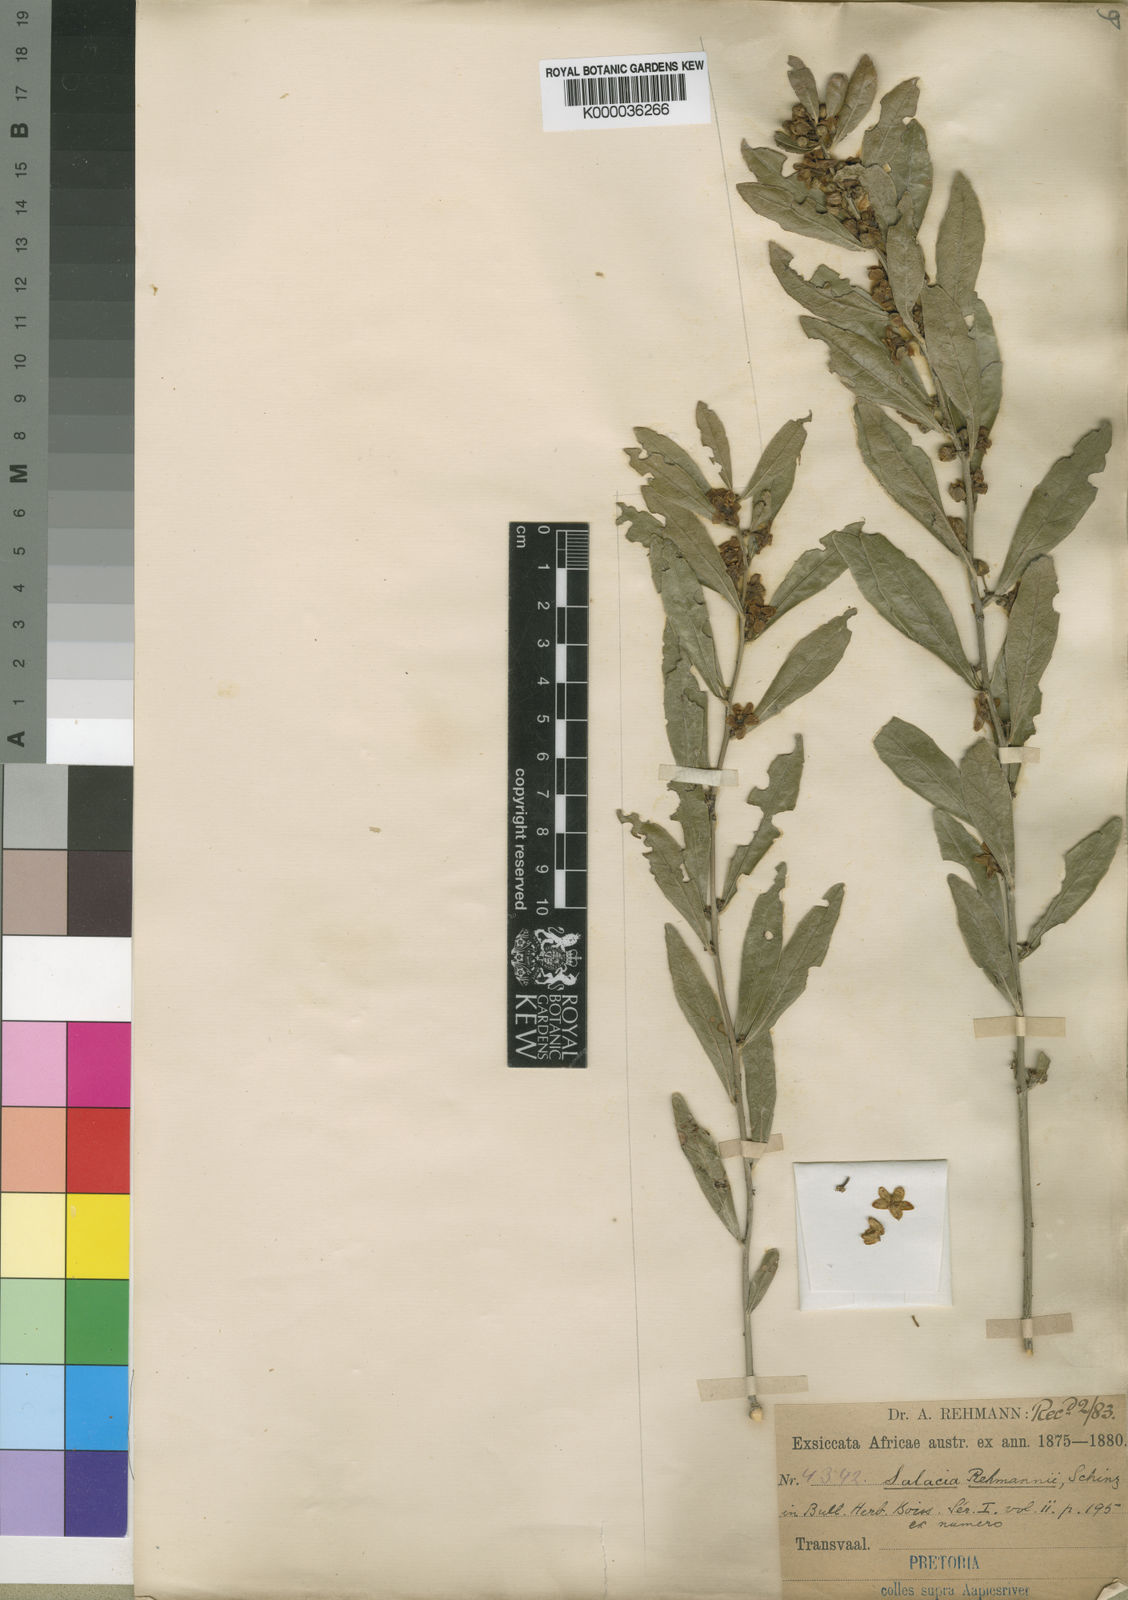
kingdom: Plantae
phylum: Tracheophyta
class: Magnoliopsida
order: Celastrales
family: Celastraceae
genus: Salacia
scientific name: Salacia rehmannii
